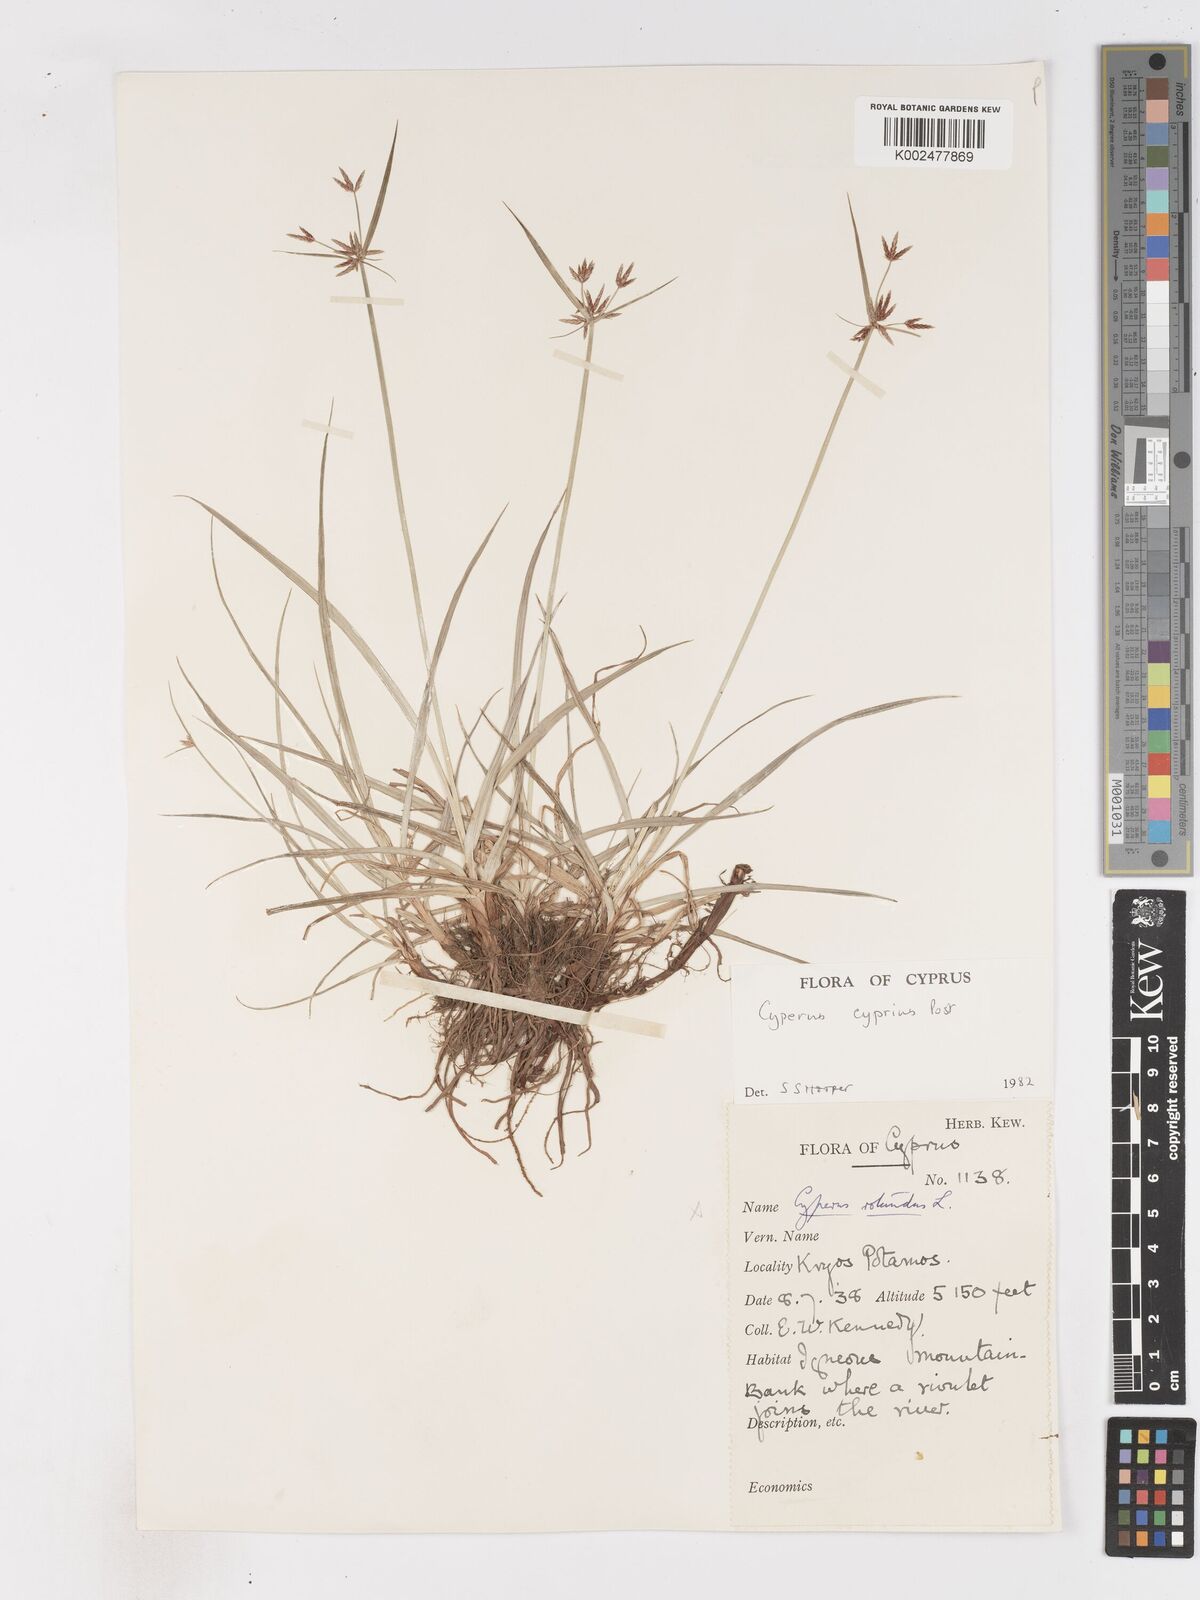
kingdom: Plantae
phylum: Tracheophyta
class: Liliopsida
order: Poales
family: Cyperaceae
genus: Cyperus
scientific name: Cyperus longus
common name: Galingale
